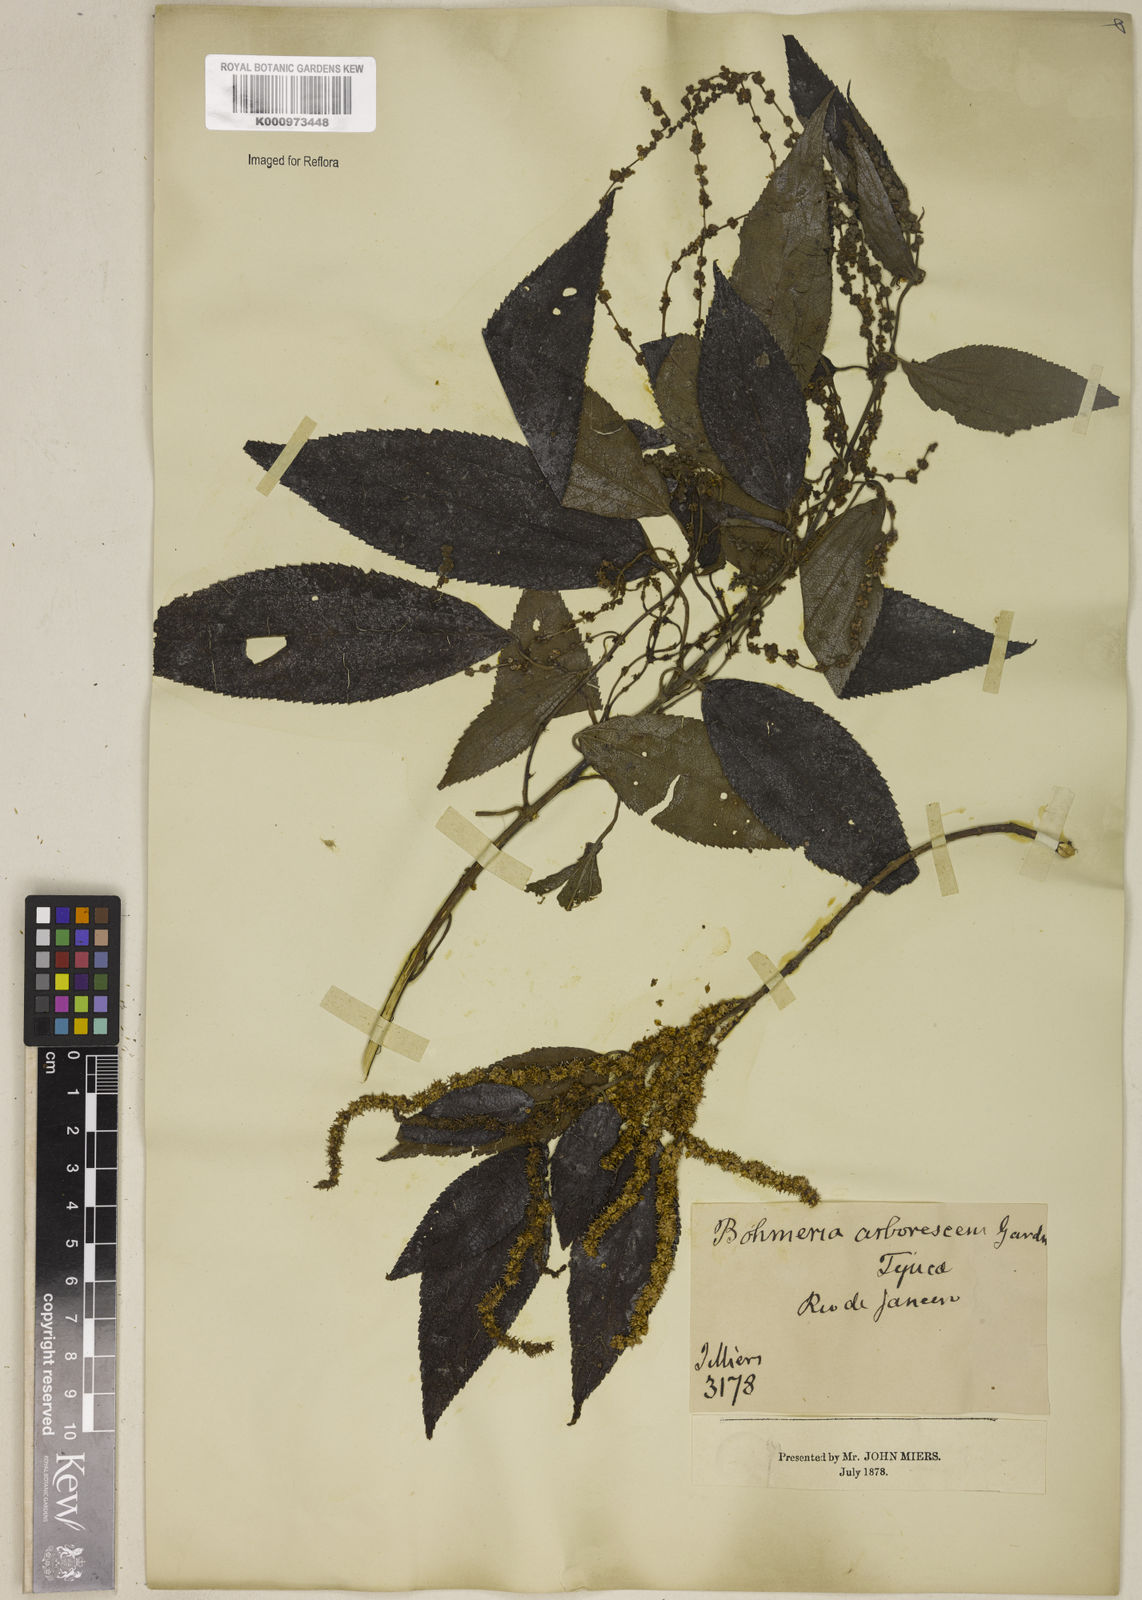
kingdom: Plantae
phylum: Tracheophyta
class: Magnoliopsida
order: Rosales
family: Urticaceae
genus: Boehmeria
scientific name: Boehmeria caudata
